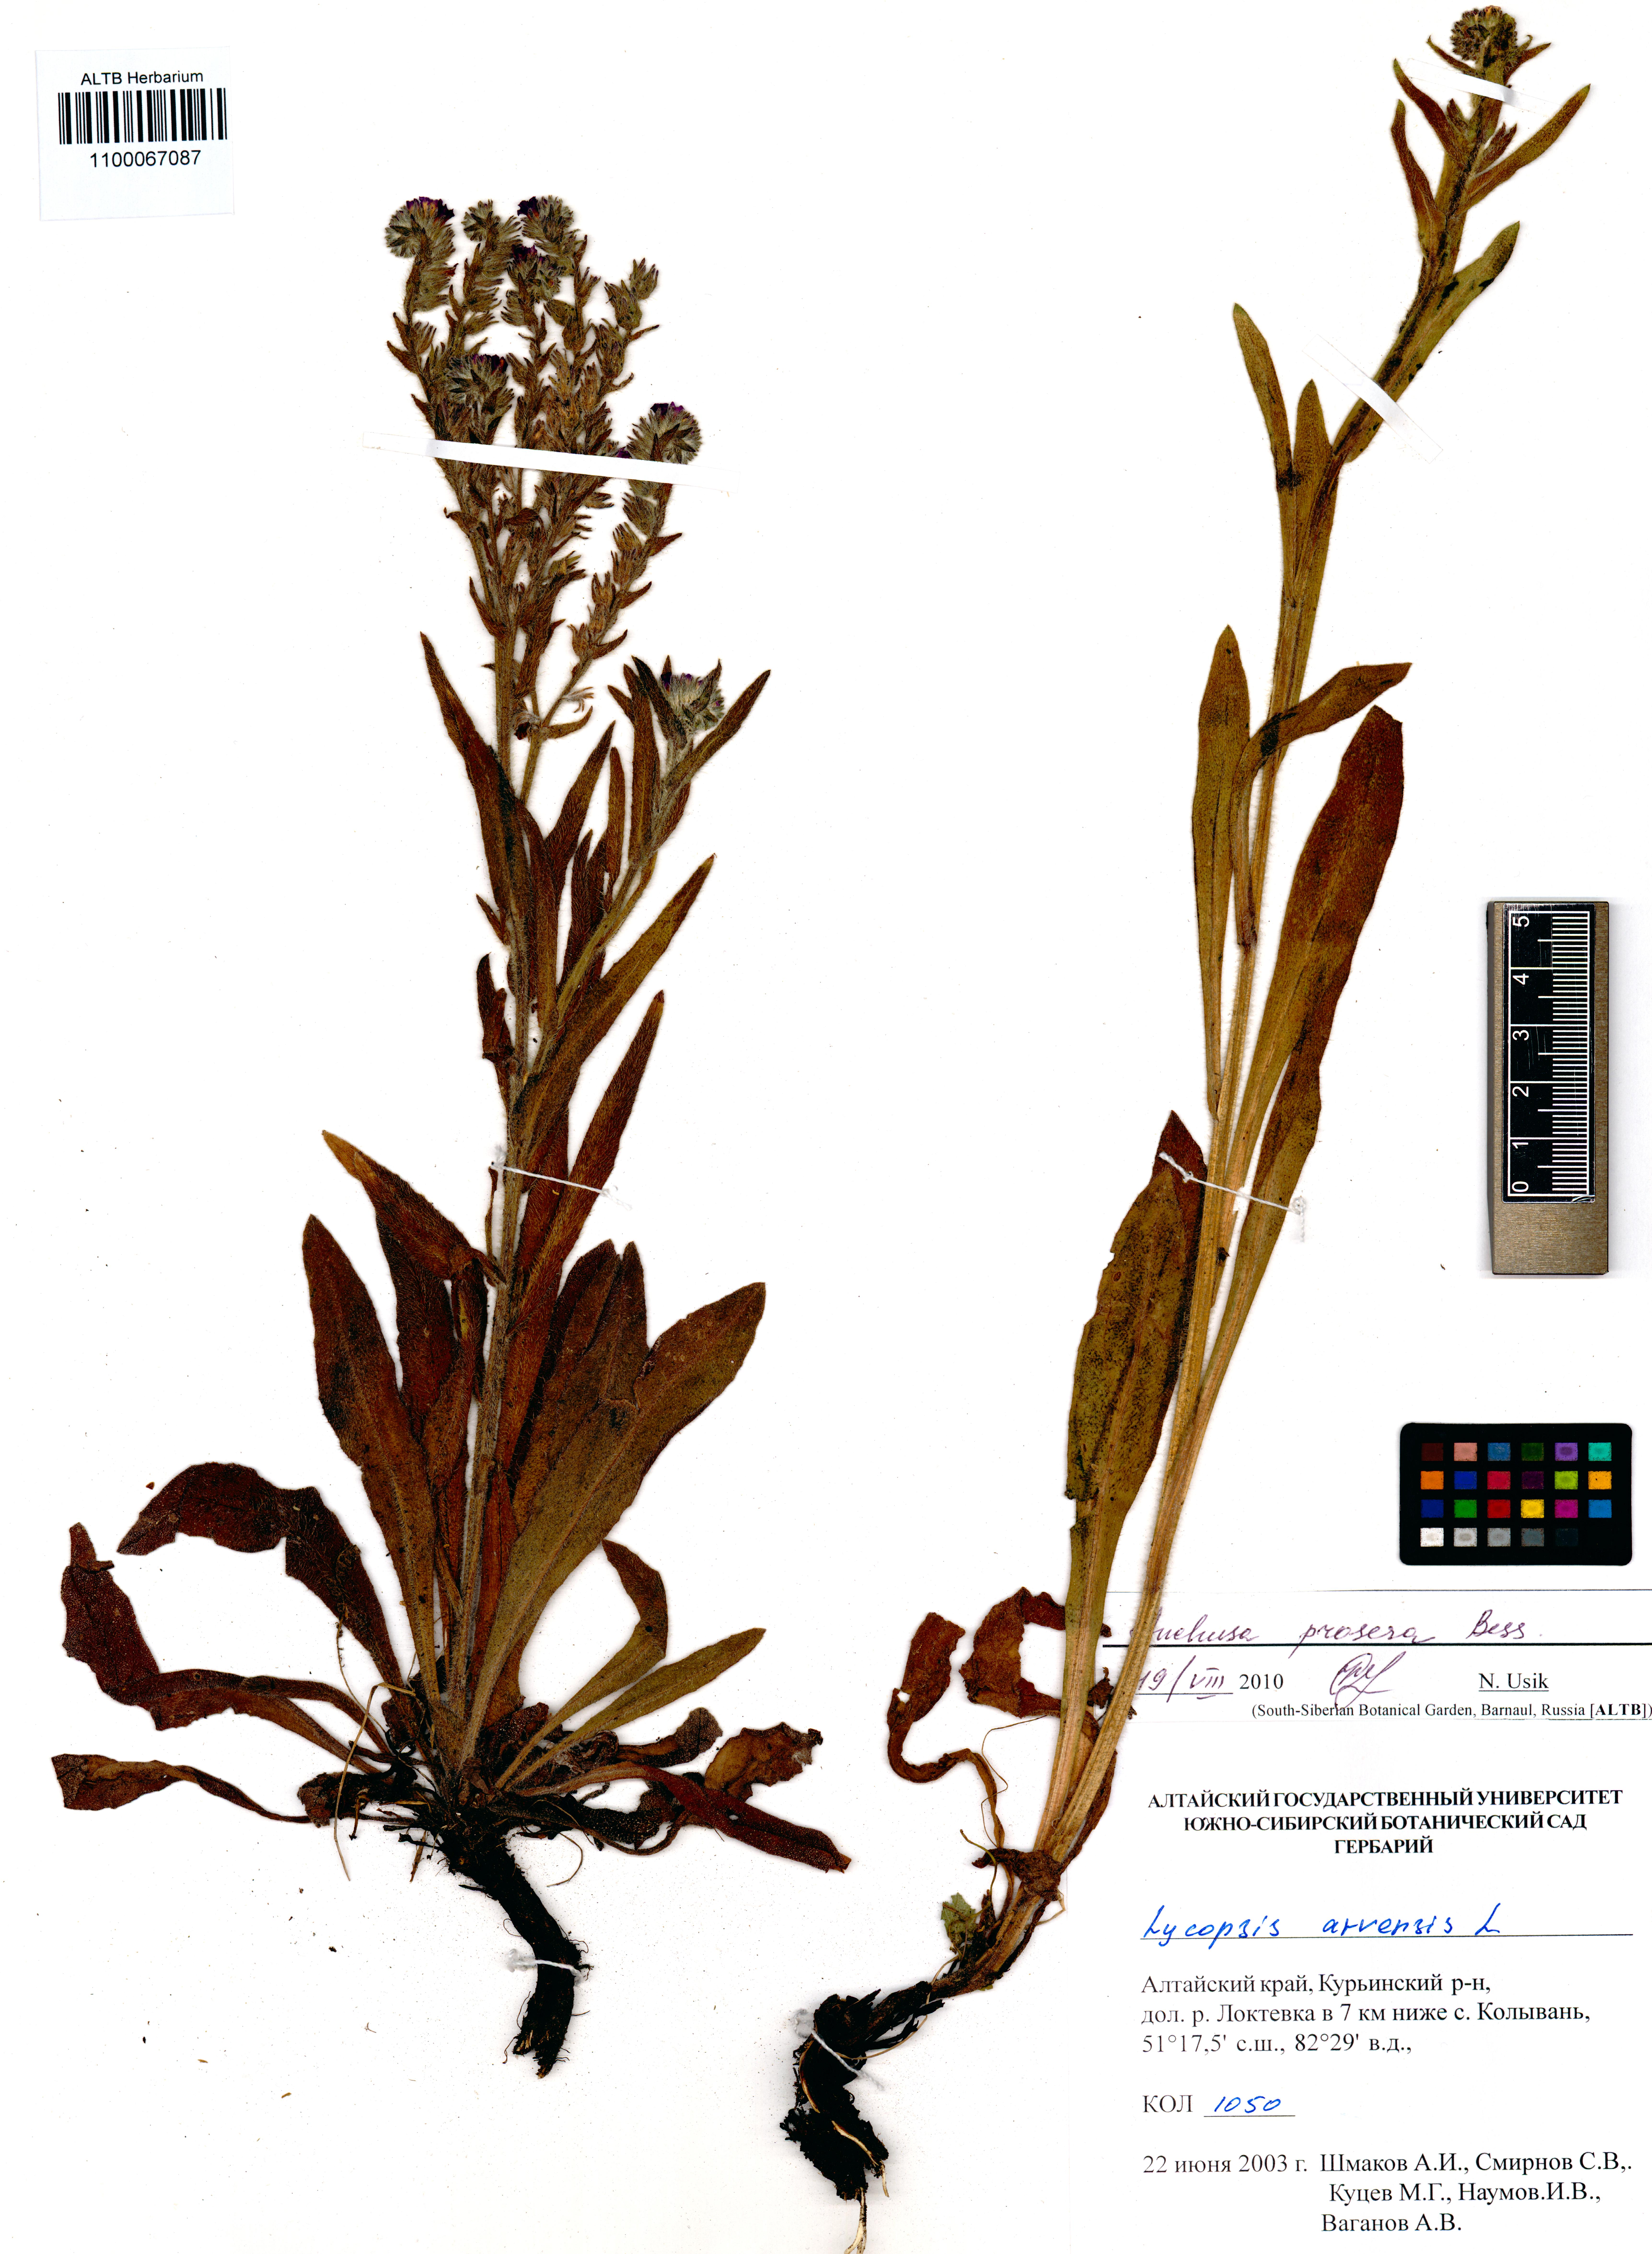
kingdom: Plantae
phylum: Tracheophyta
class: Magnoliopsida
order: Boraginales
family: Boraginaceae
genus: Anchusa
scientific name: Anchusa procera
